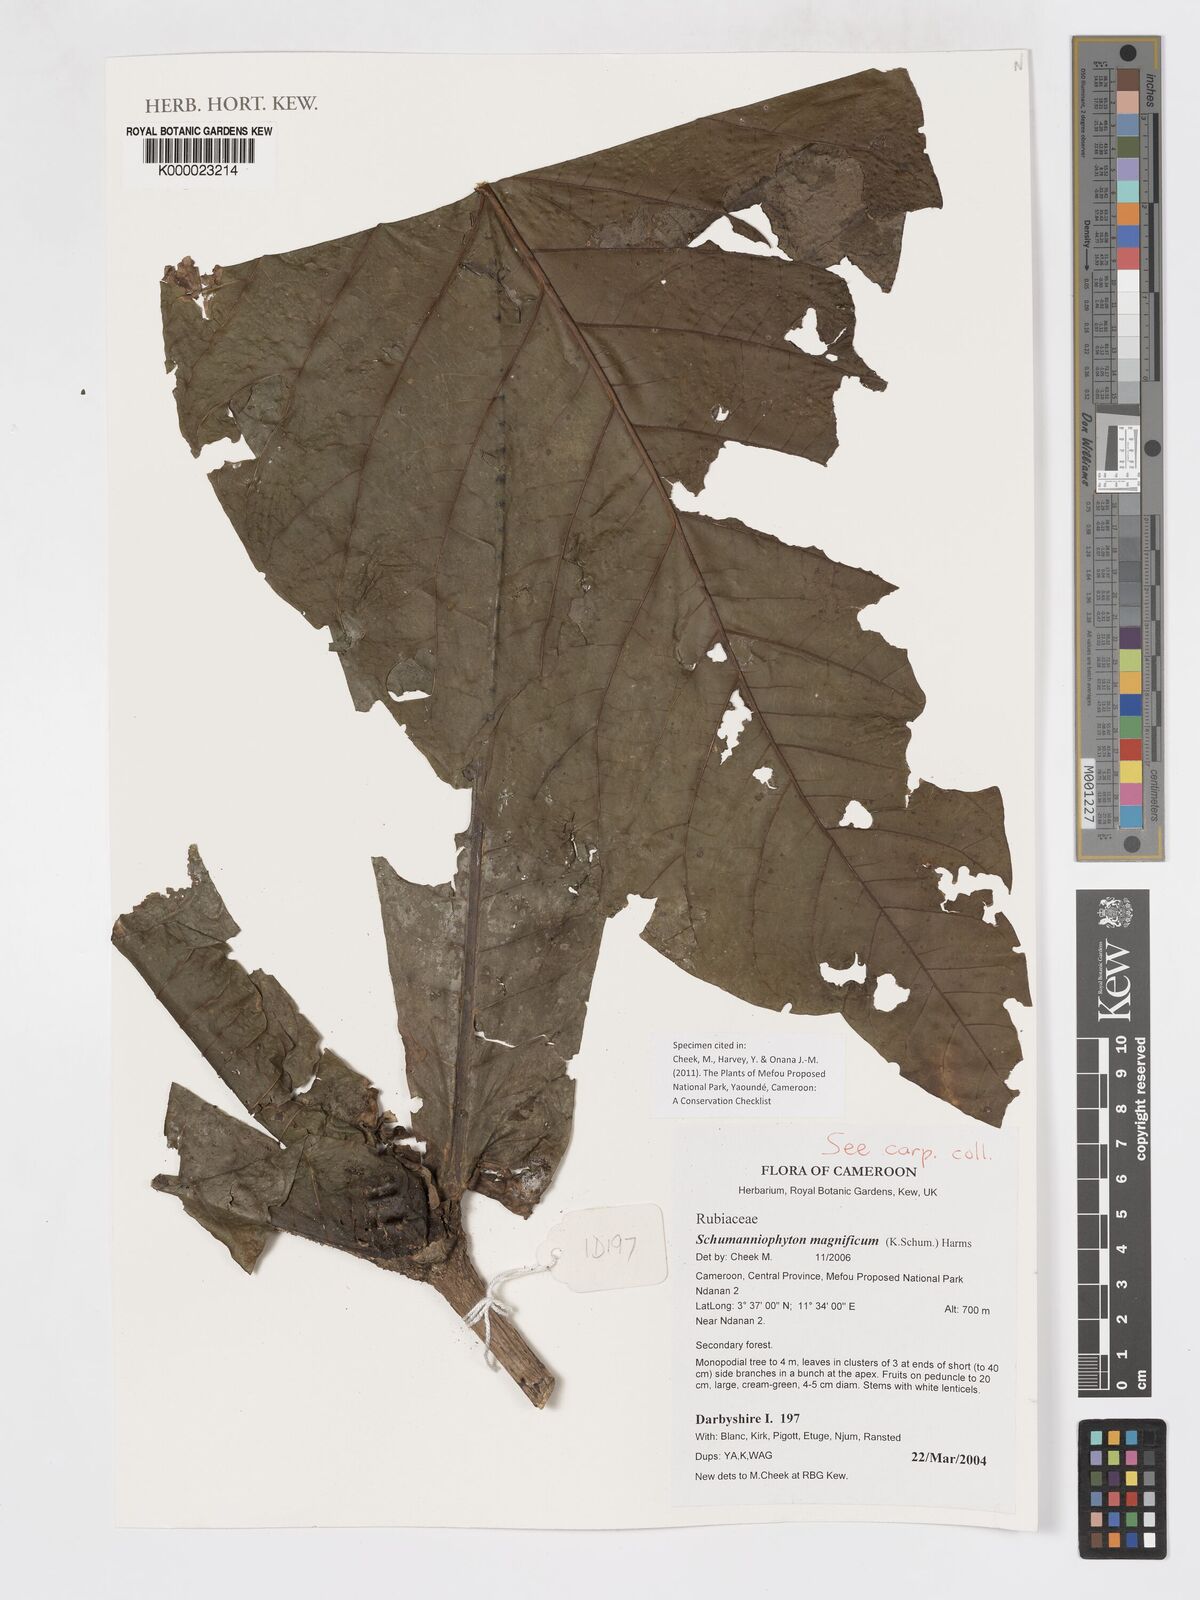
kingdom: Plantae
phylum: Tracheophyta
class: Magnoliopsida
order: Gentianales
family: Rubiaceae
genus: Schumanniophyton
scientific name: Schumanniophyton magnificum
